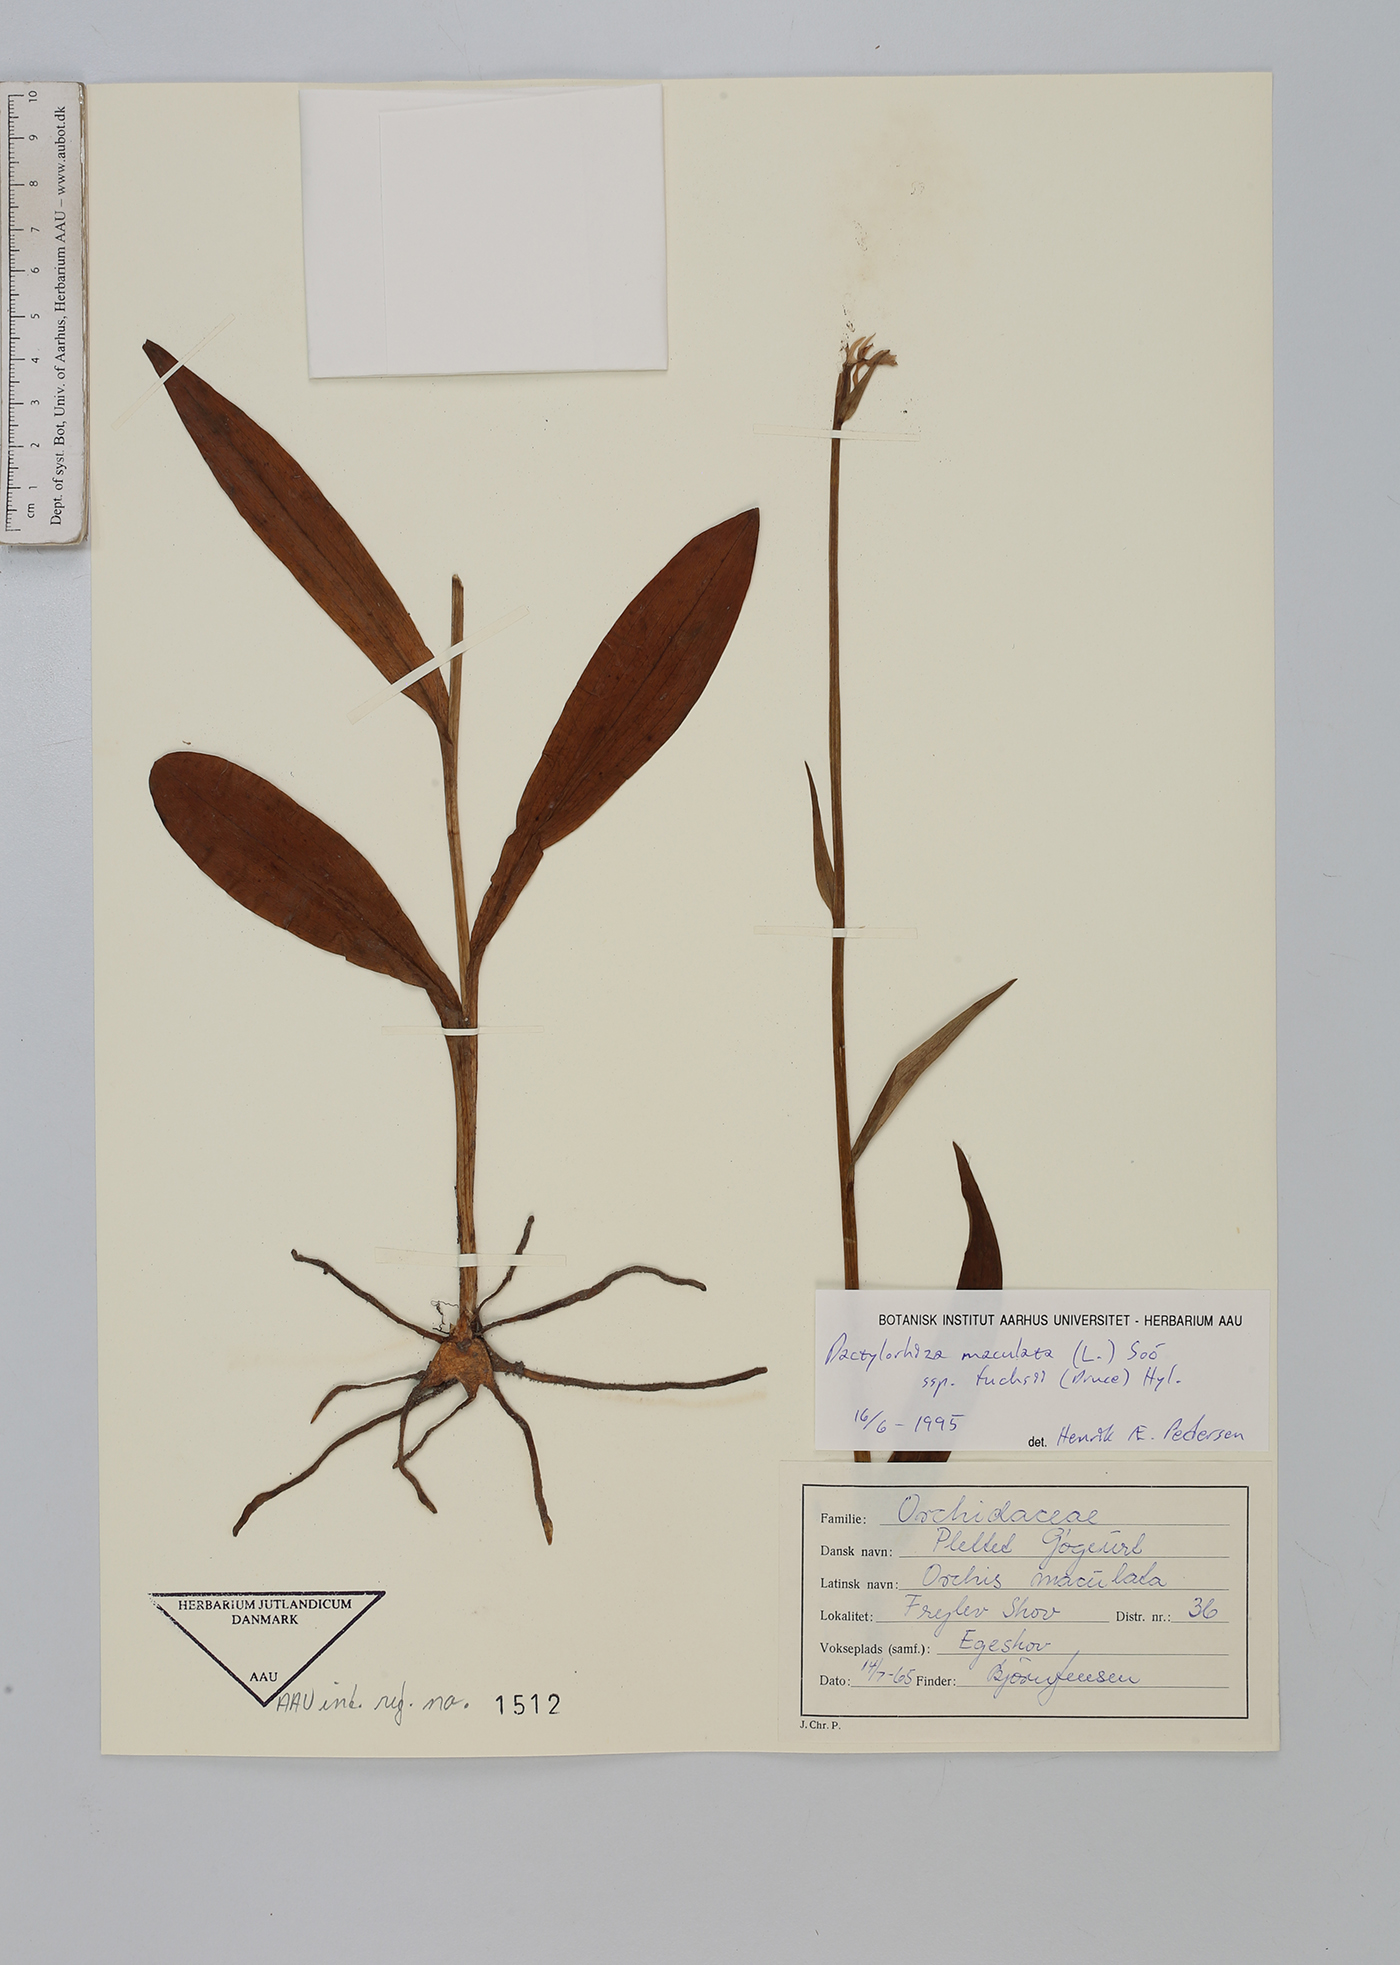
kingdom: Plantae
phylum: Tracheophyta
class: Liliopsida
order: Asparagales
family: Orchidaceae
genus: Dactylorhiza
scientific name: Dactylorhiza maculata
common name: Heath spotted-orchid
